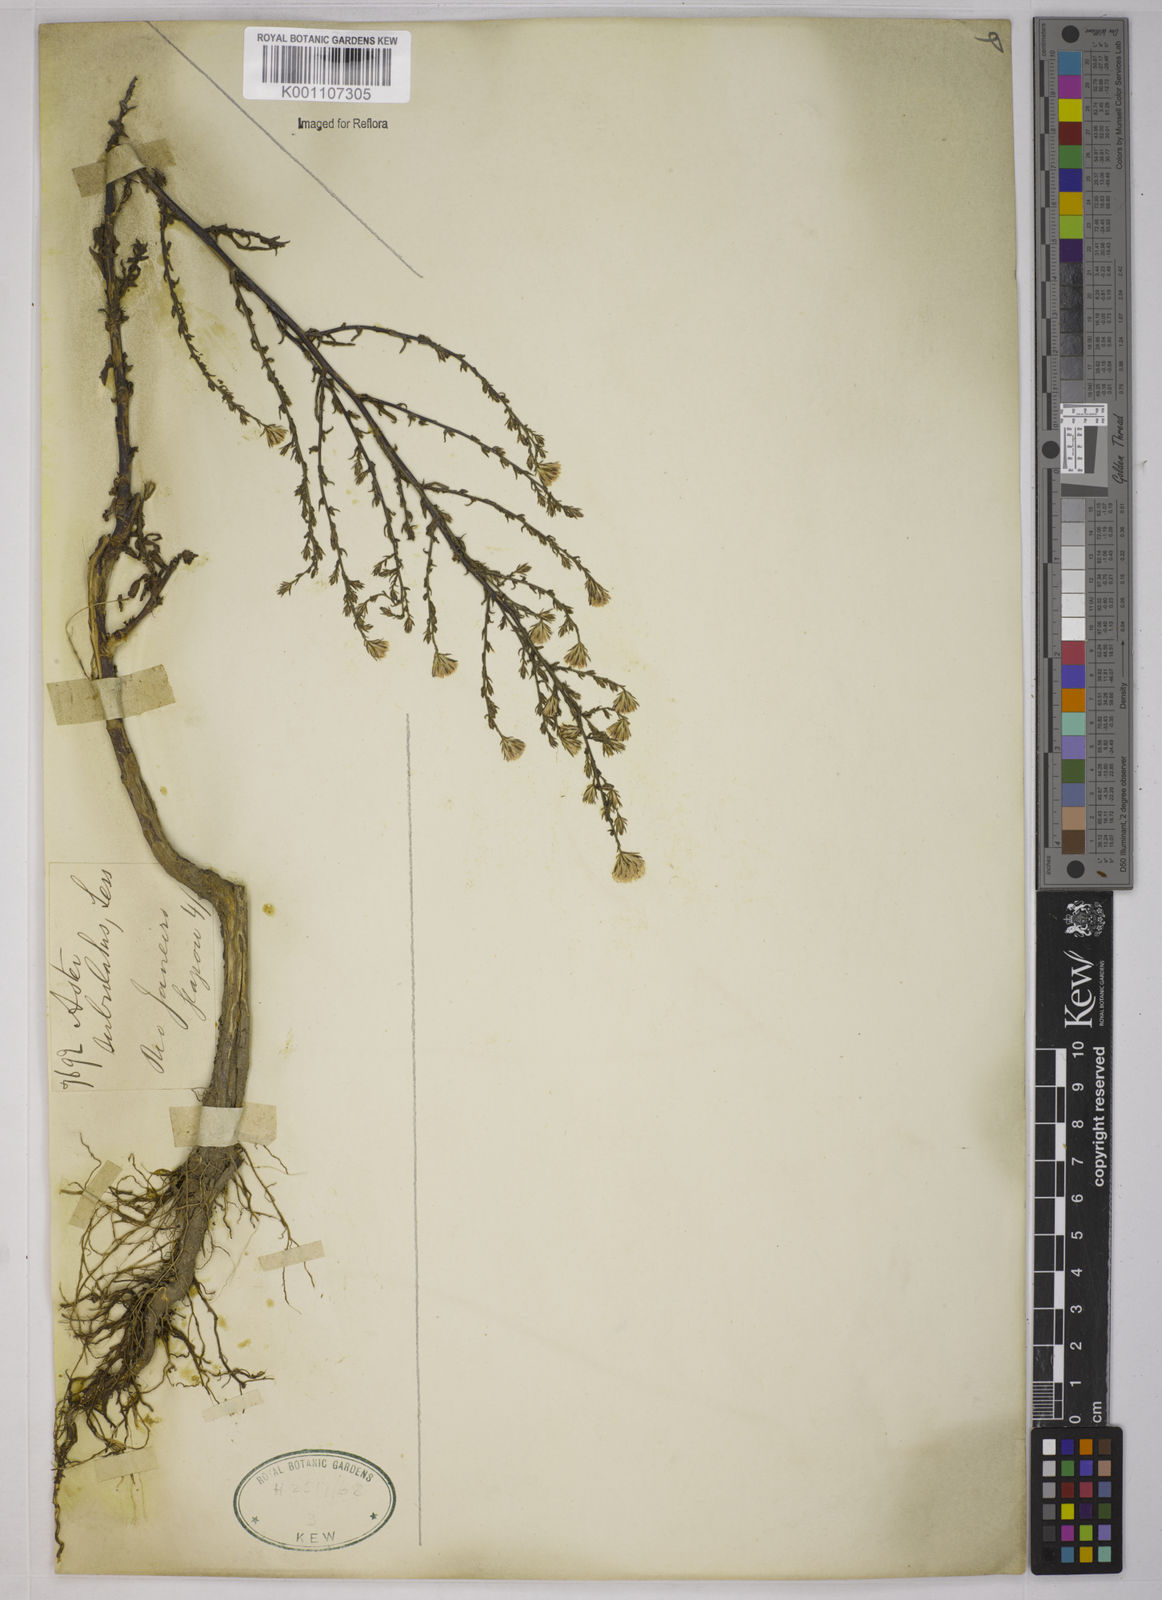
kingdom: Plantae
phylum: Tracheophyta
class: Magnoliopsida
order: Asterales
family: Asteraceae
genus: Symphyotrichum
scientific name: Symphyotrichum
